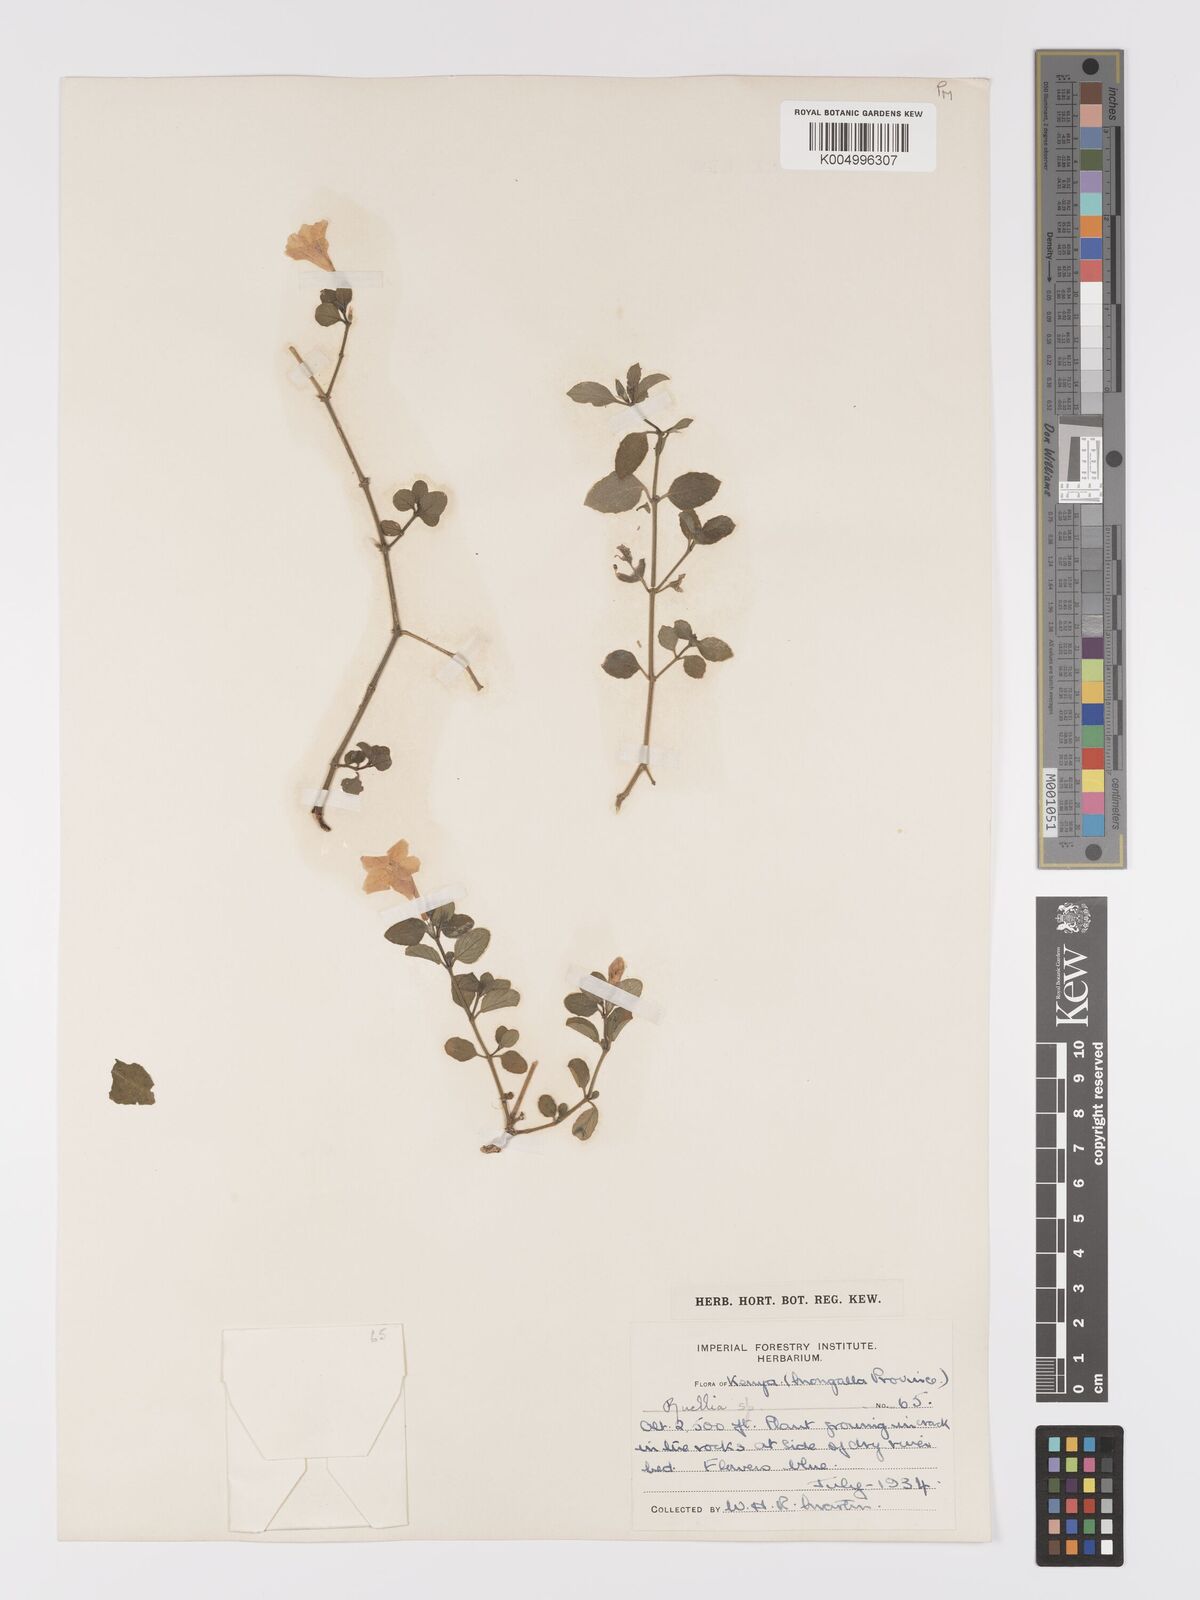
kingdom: Plantae
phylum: Tracheophyta
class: Magnoliopsida
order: Lamiales
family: Acanthaceae
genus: Ruellia
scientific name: Ruellia patula
